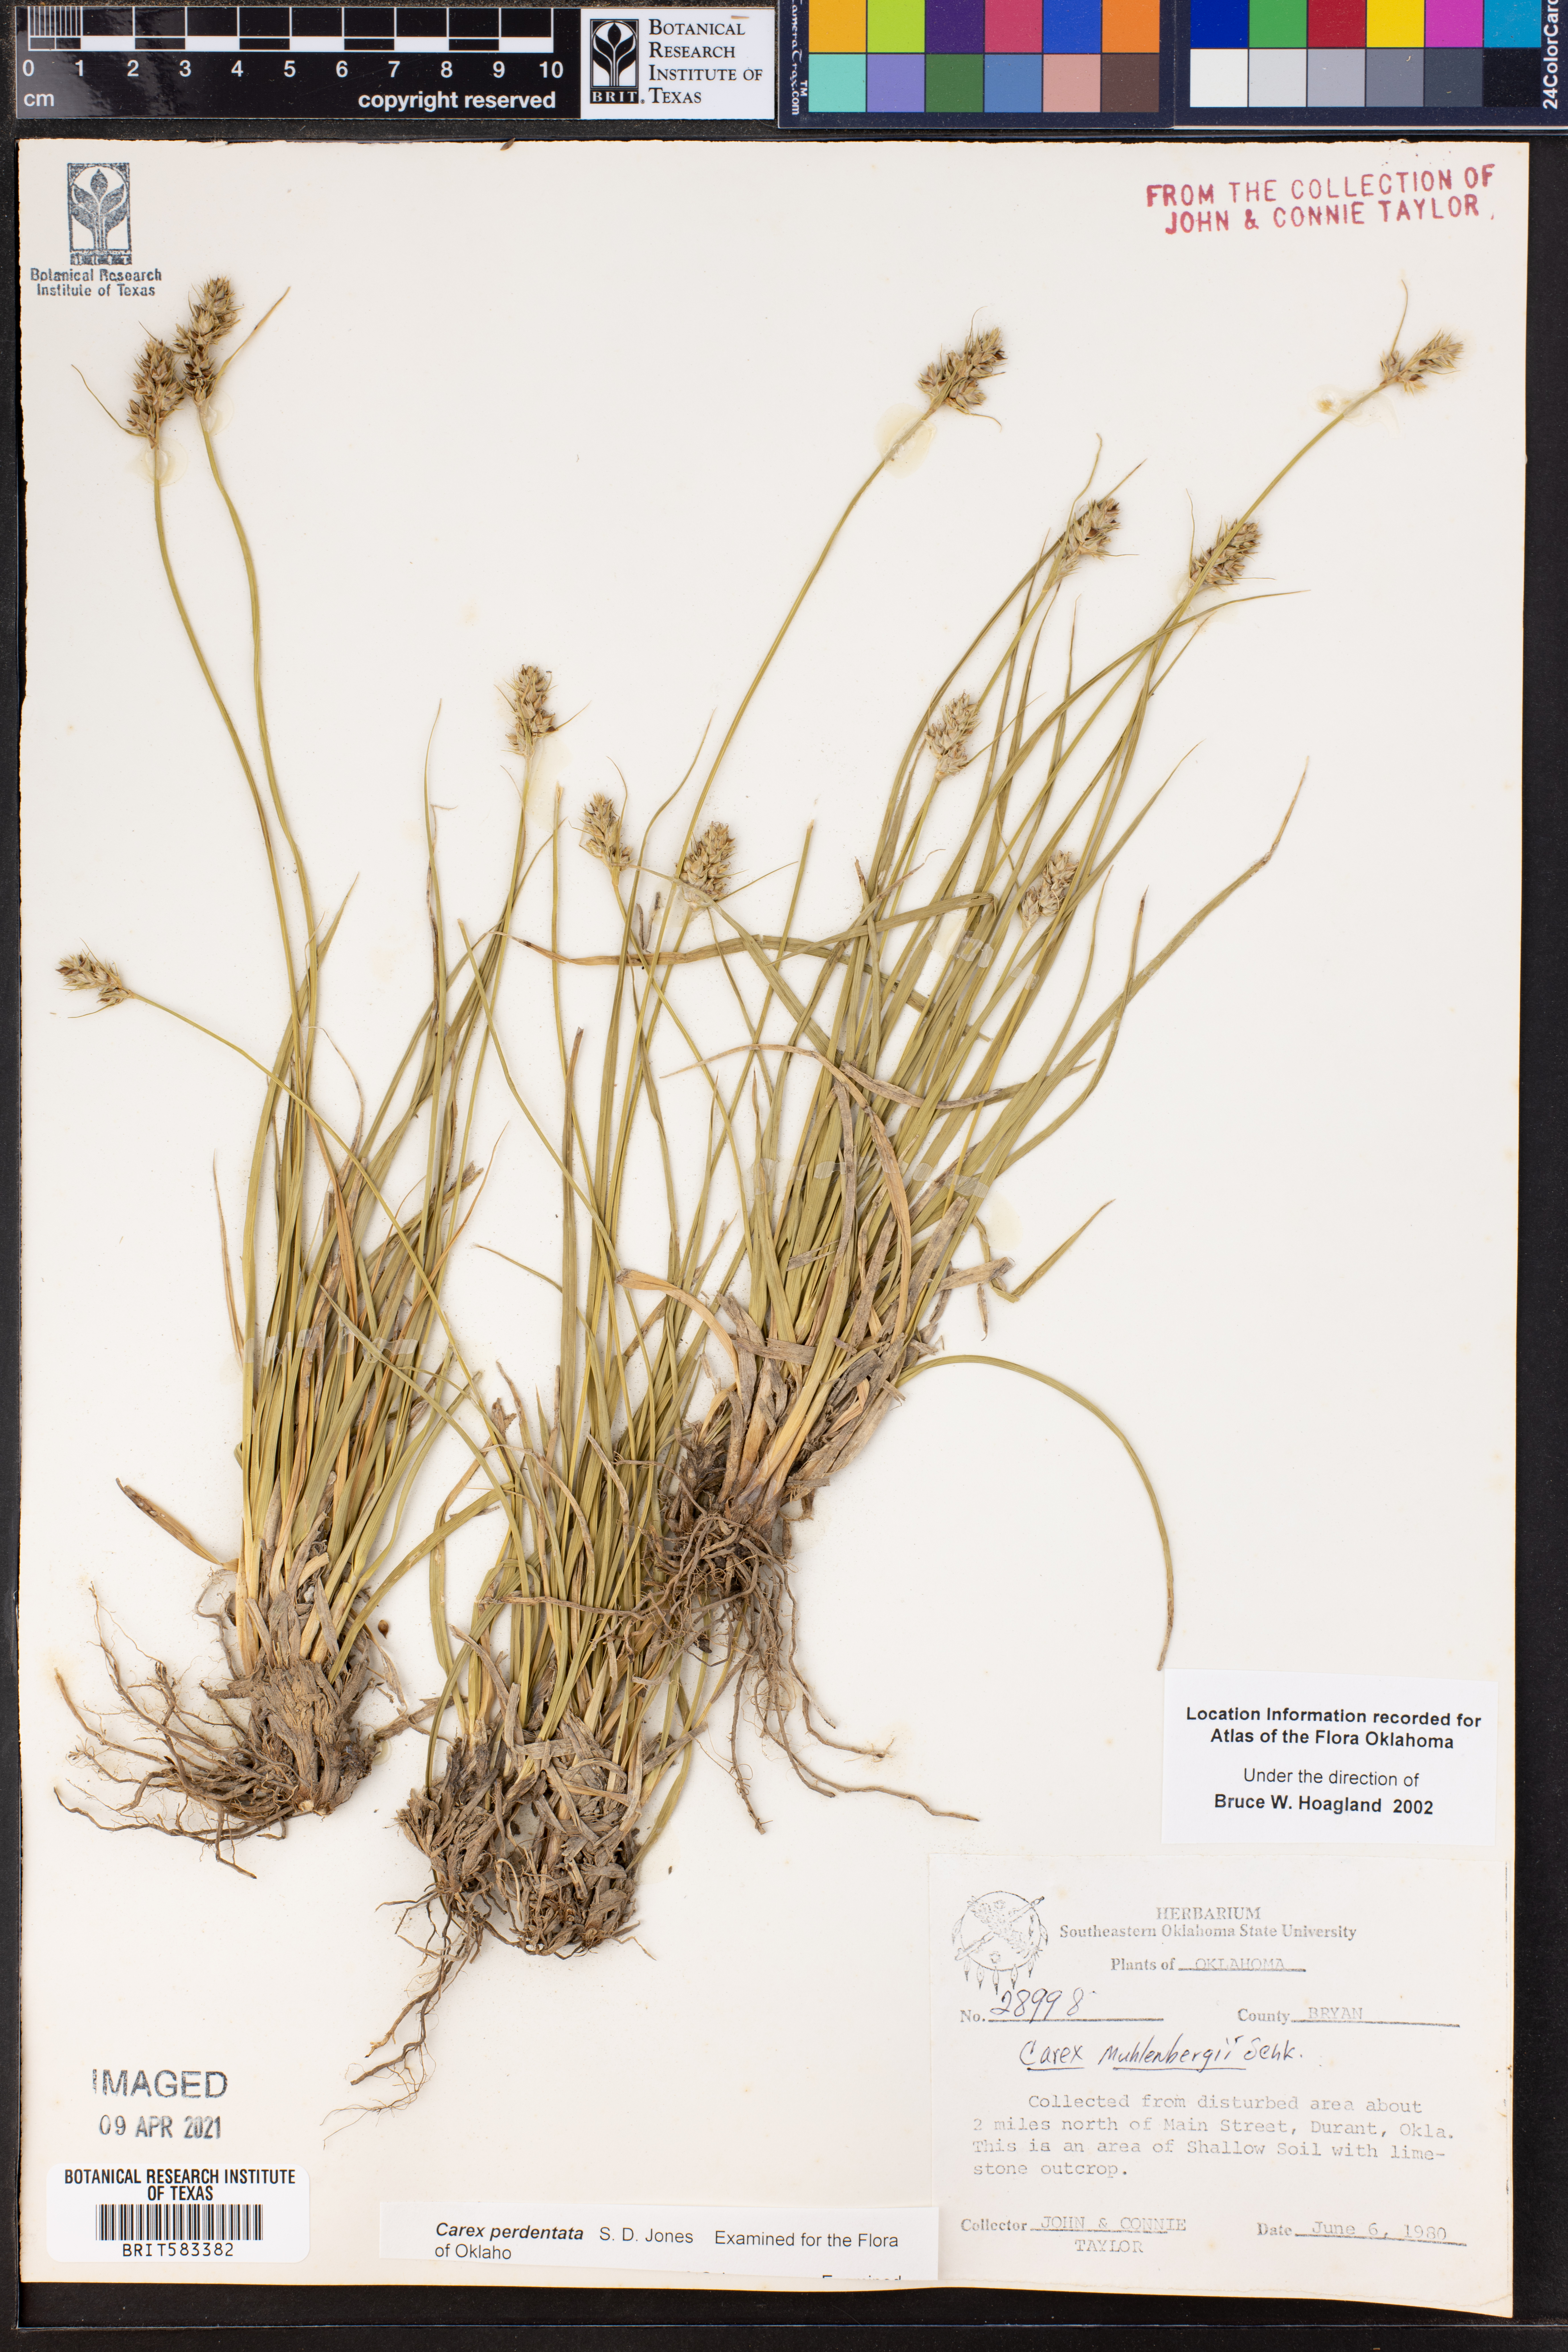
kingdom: Plantae
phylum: Tracheophyta
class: Liliopsida
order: Poales
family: Cyperaceae
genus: Carex
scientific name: Carex perdentata
